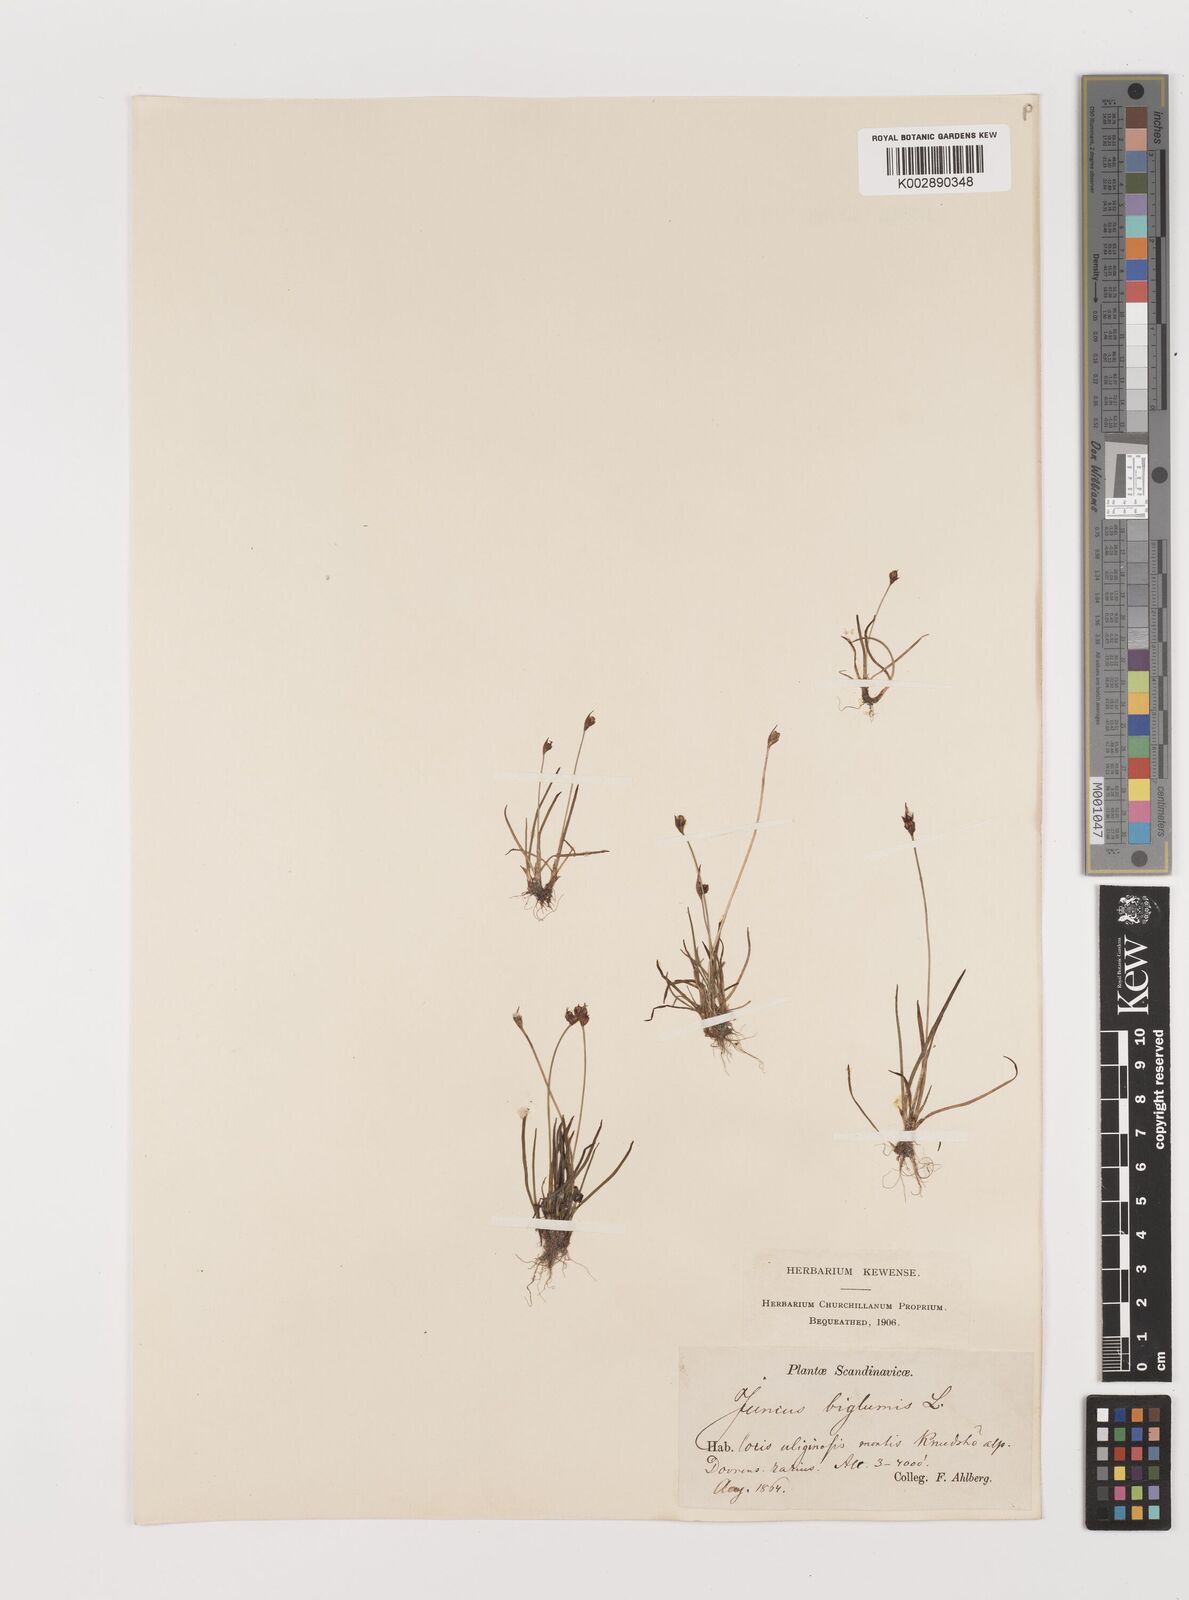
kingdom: Plantae
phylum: Tracheophyta
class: Liliopsida
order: Poales
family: Juncaceae
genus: Juncus
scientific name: Juncus biglumis
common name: Two-flowered rush
